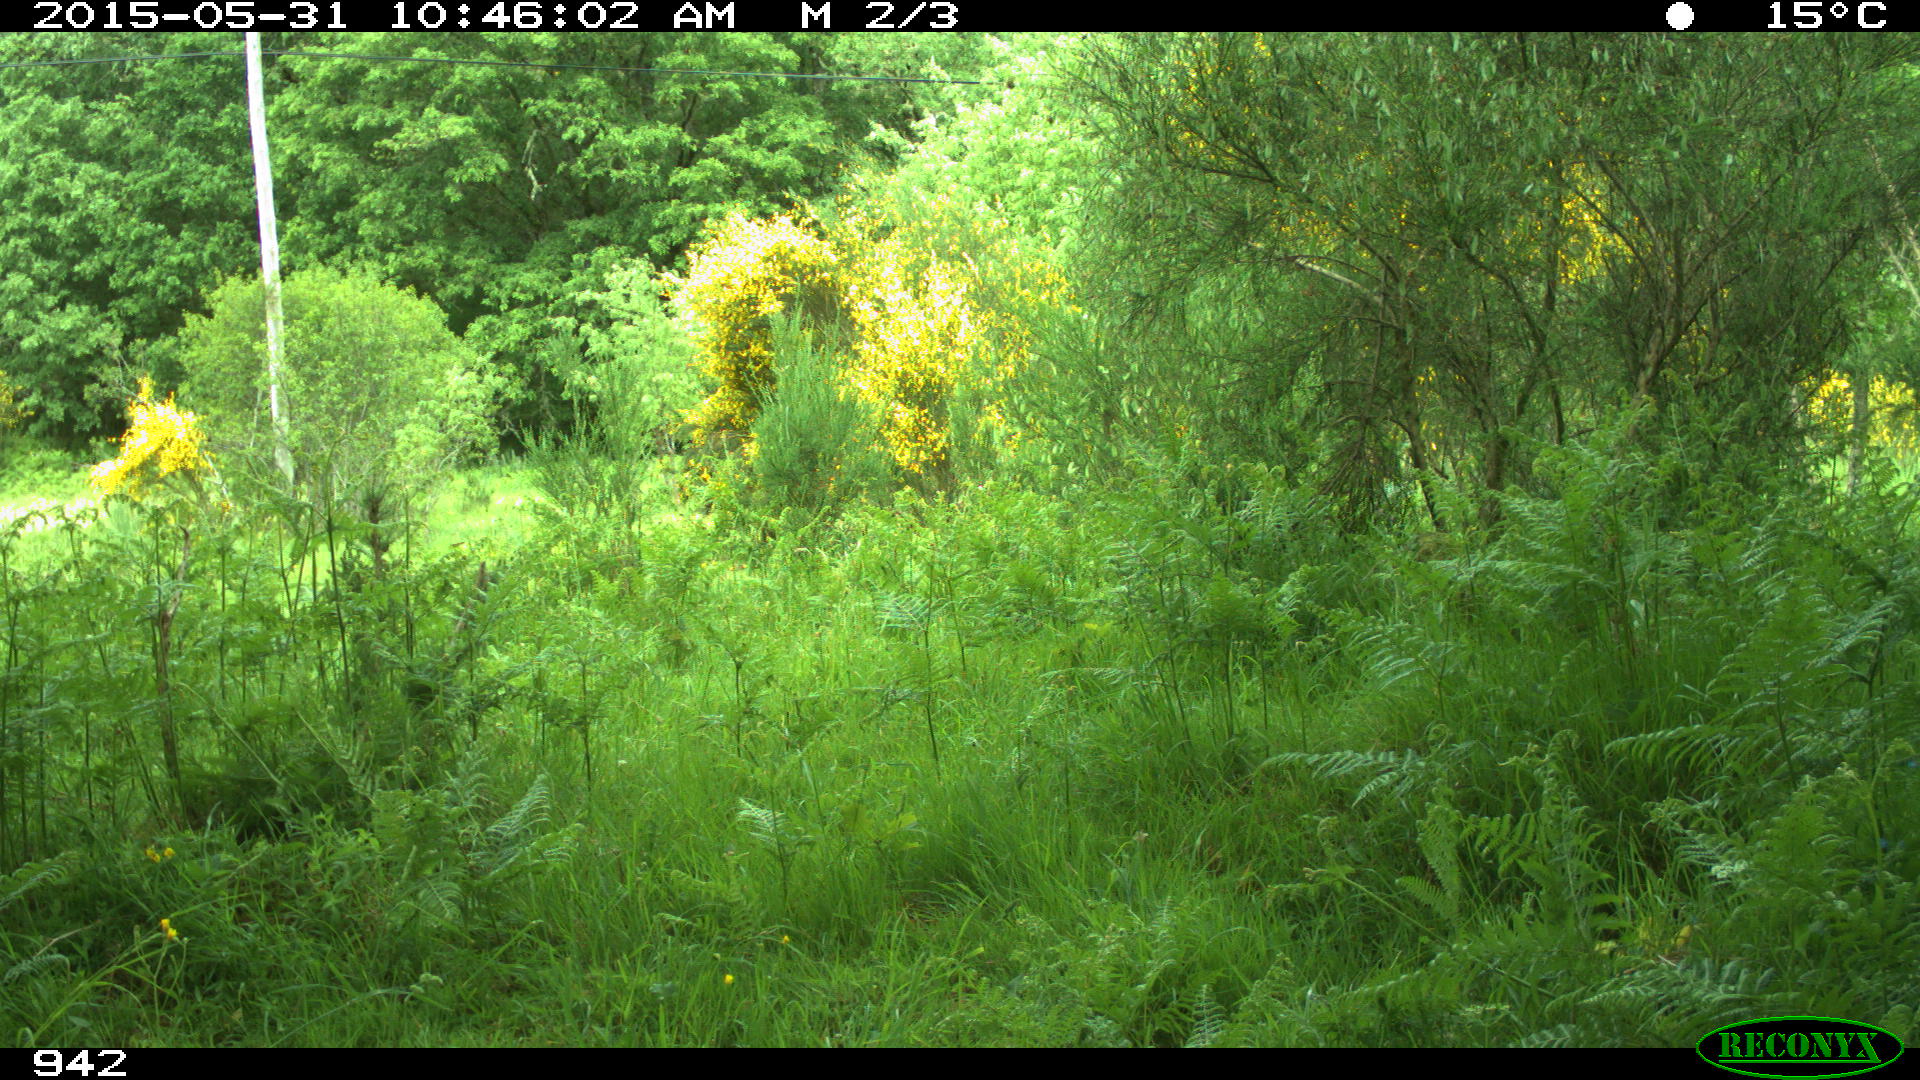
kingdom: Animalia
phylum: Chordata
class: Mammalia
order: Artiodactyla
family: Bovidae
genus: Bos
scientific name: Bos taurus
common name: Domesticated cattle
